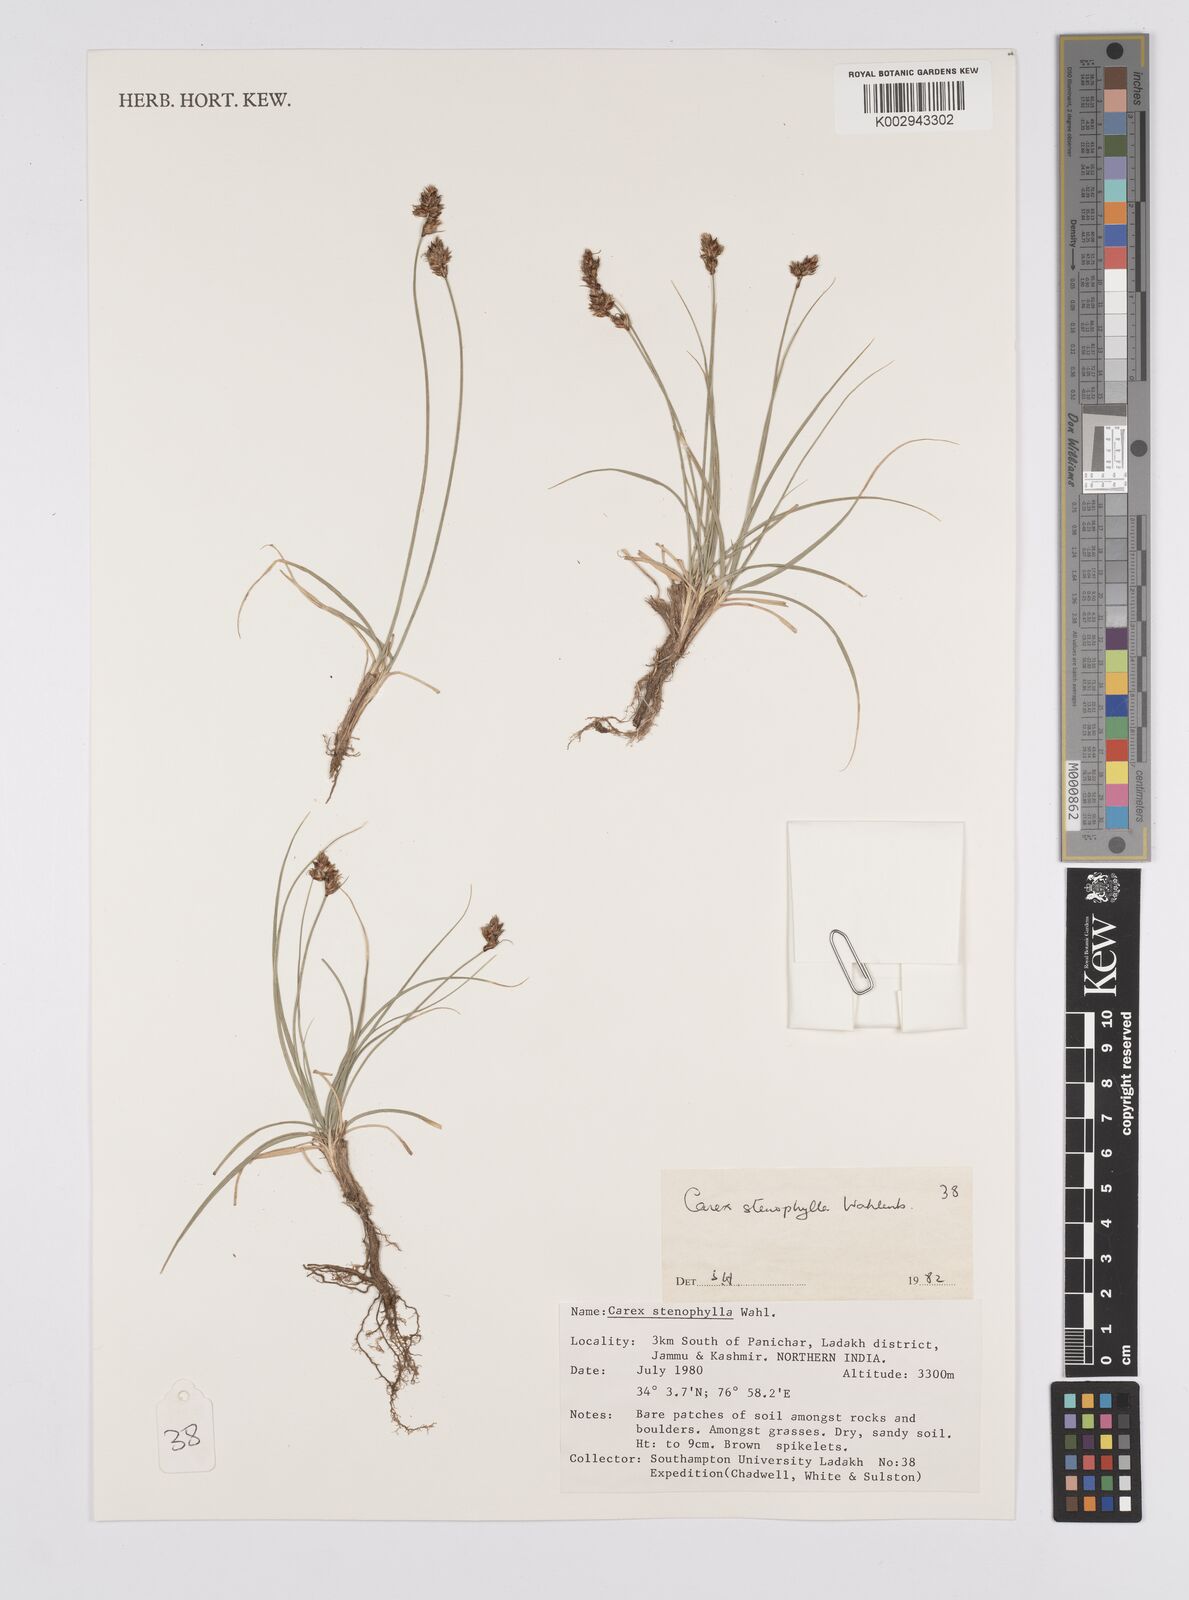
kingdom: Plantae
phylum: Tracheophyta
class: Liliopsida
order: Poales
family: Cyperaceae
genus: Carex
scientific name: Carex stenophylla
